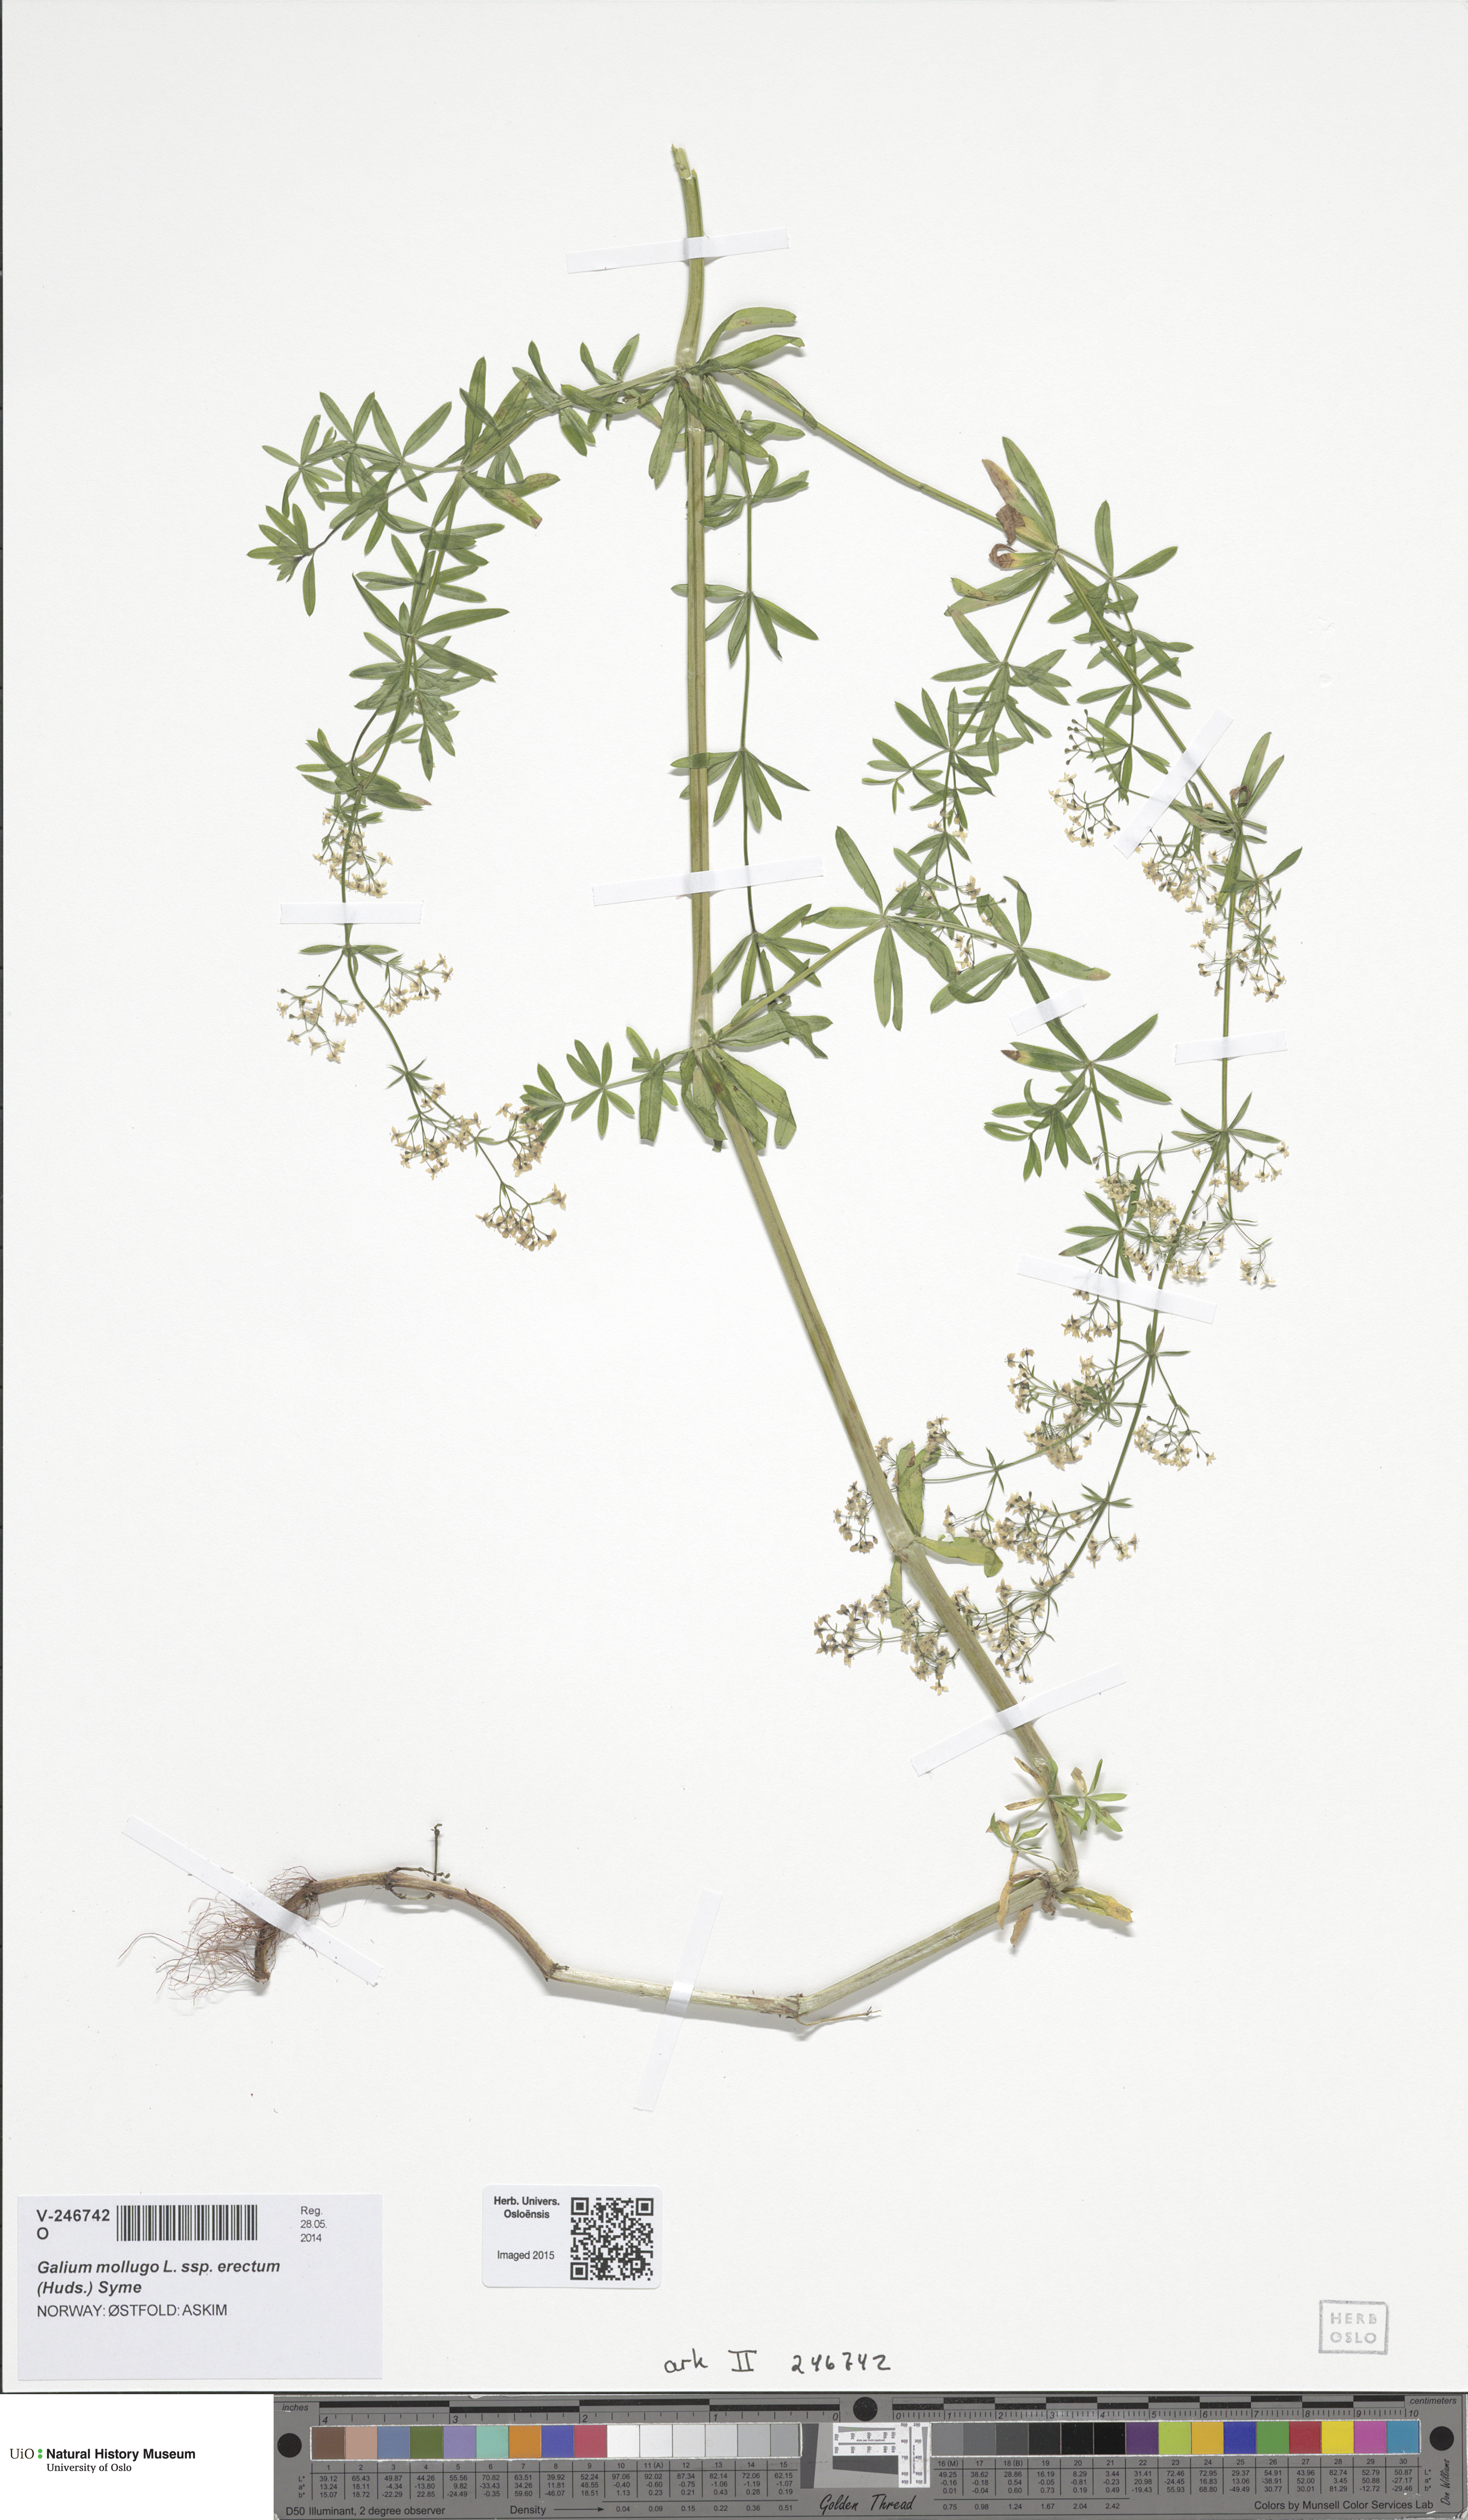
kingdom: Plantae
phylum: Tracheophyta
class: Magnoliopsida
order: Gentianales
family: Rubiaceae
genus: Galium
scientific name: Galium album
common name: White bedstraw
